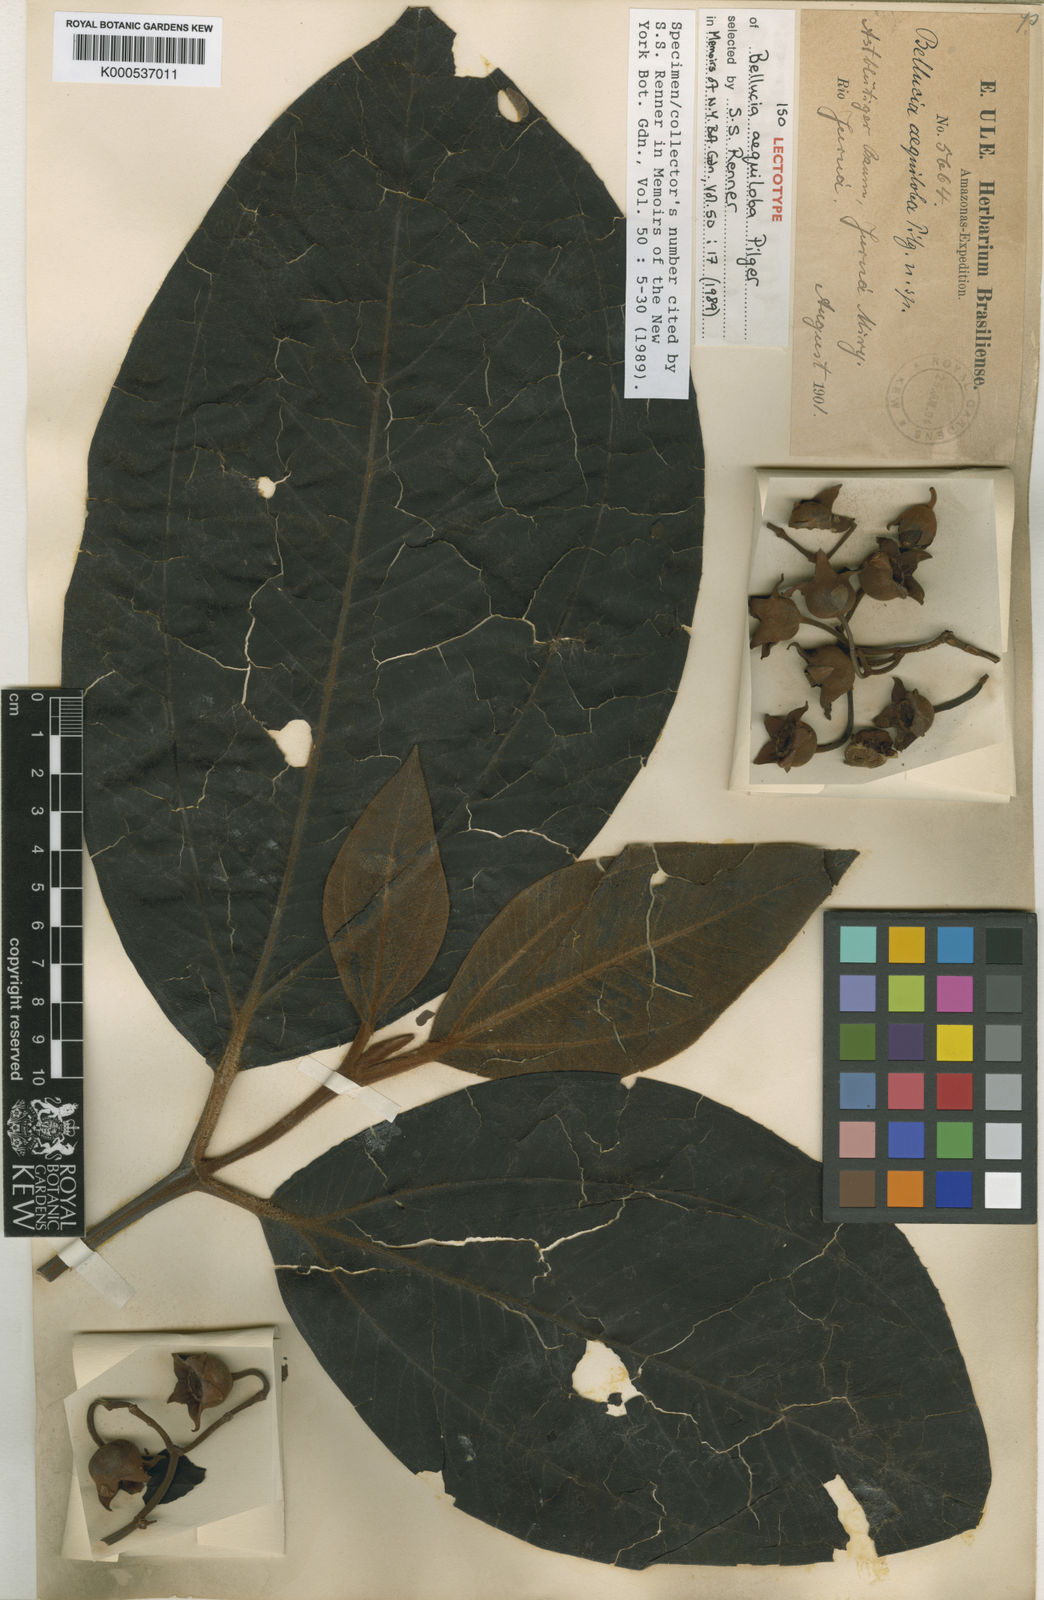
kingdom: Plantae
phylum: Tracheophyta
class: Magnoliopsida
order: Myrtales
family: Melastomataceae
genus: Bellucia
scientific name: Bellucia aequiloba
